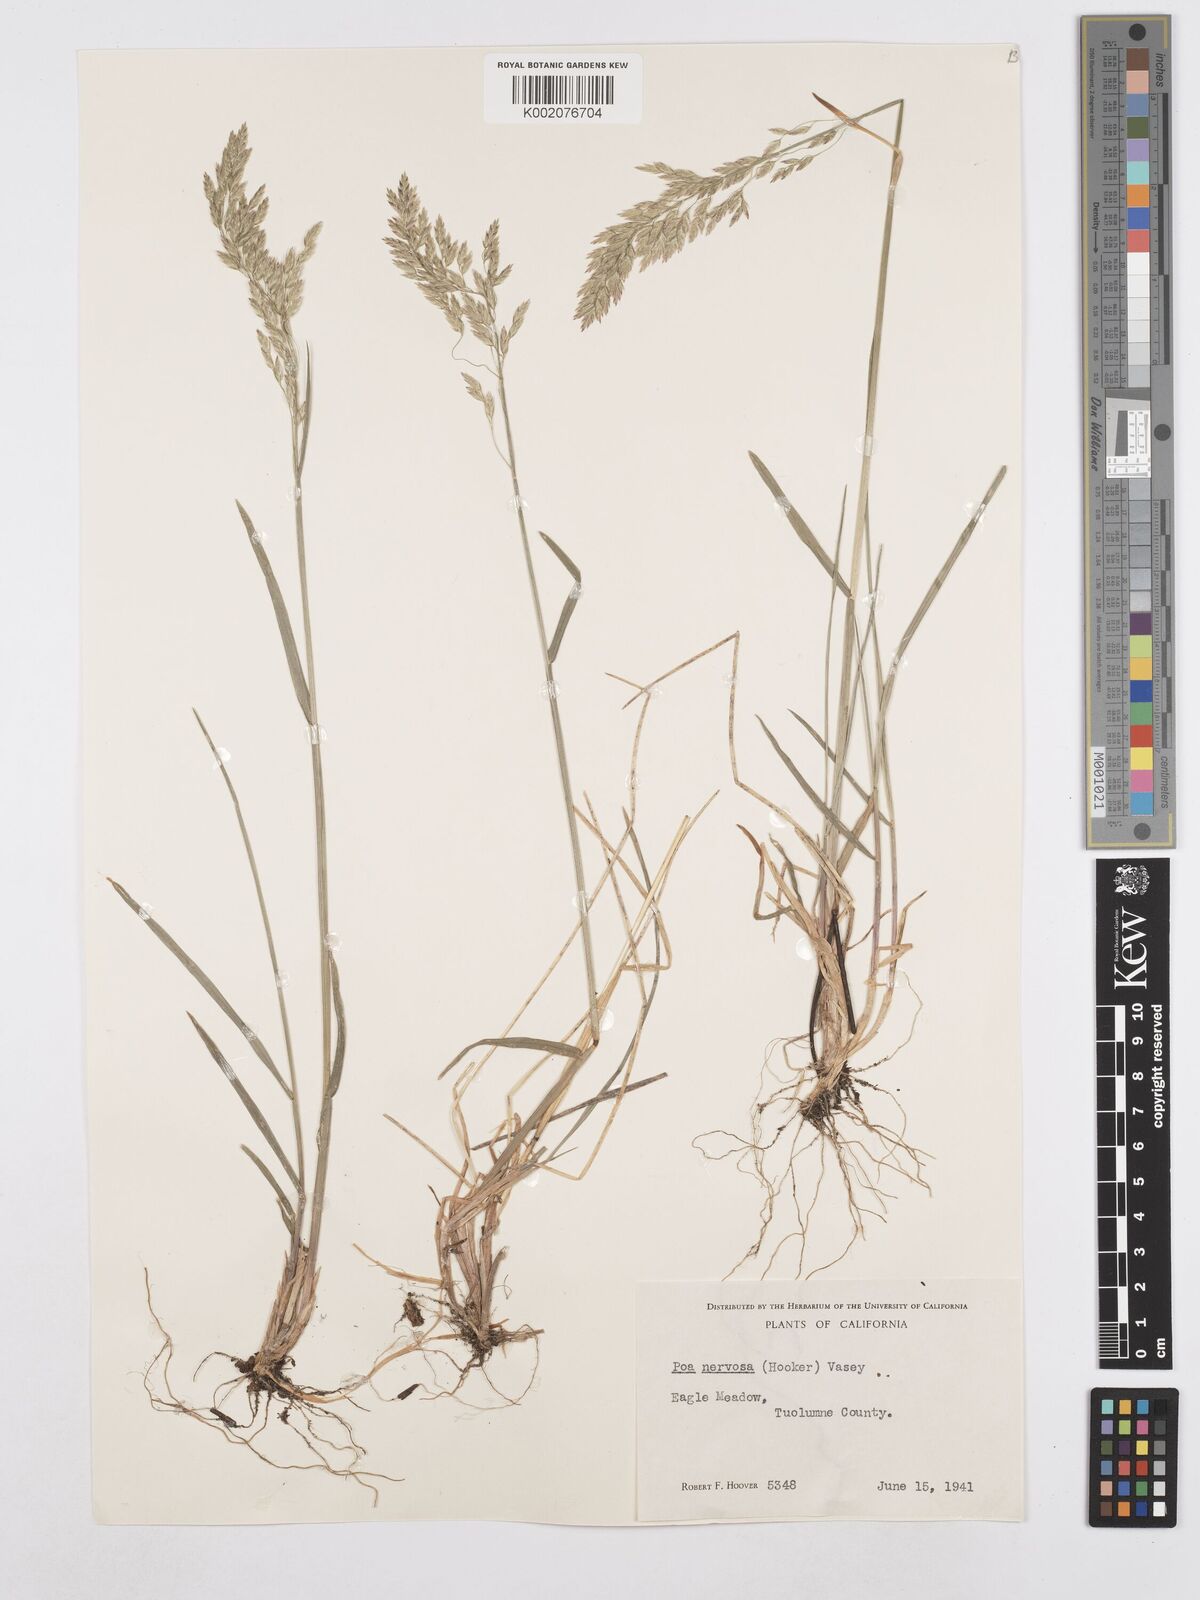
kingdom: Plantae
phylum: Tracheophyta
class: Liliopsida
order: Poales
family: Poaceae
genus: Poa
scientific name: Poa nervosa
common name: Hooker's bluegrass
